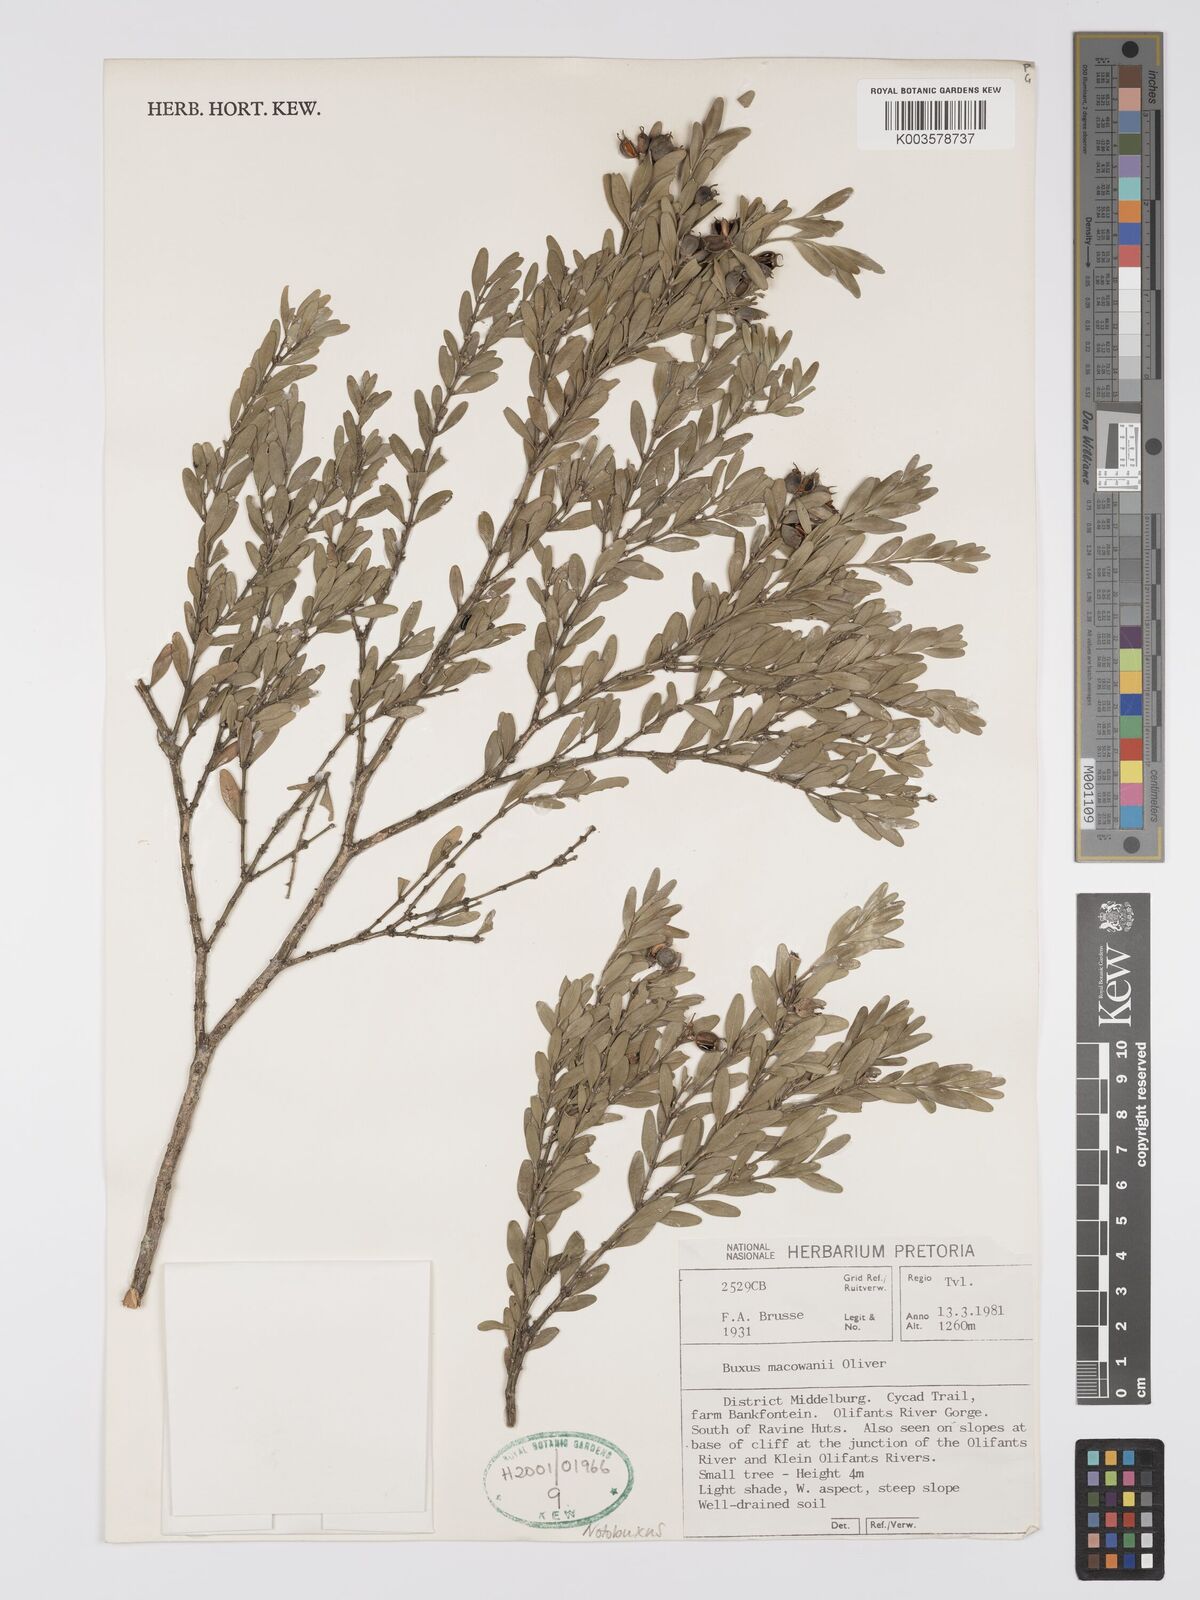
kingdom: Plantae
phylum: Tracheophyta
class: Magnoliopsida
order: Buxales
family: Buxaceae
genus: Buxus
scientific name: Buxus macowanii
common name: Cape box
